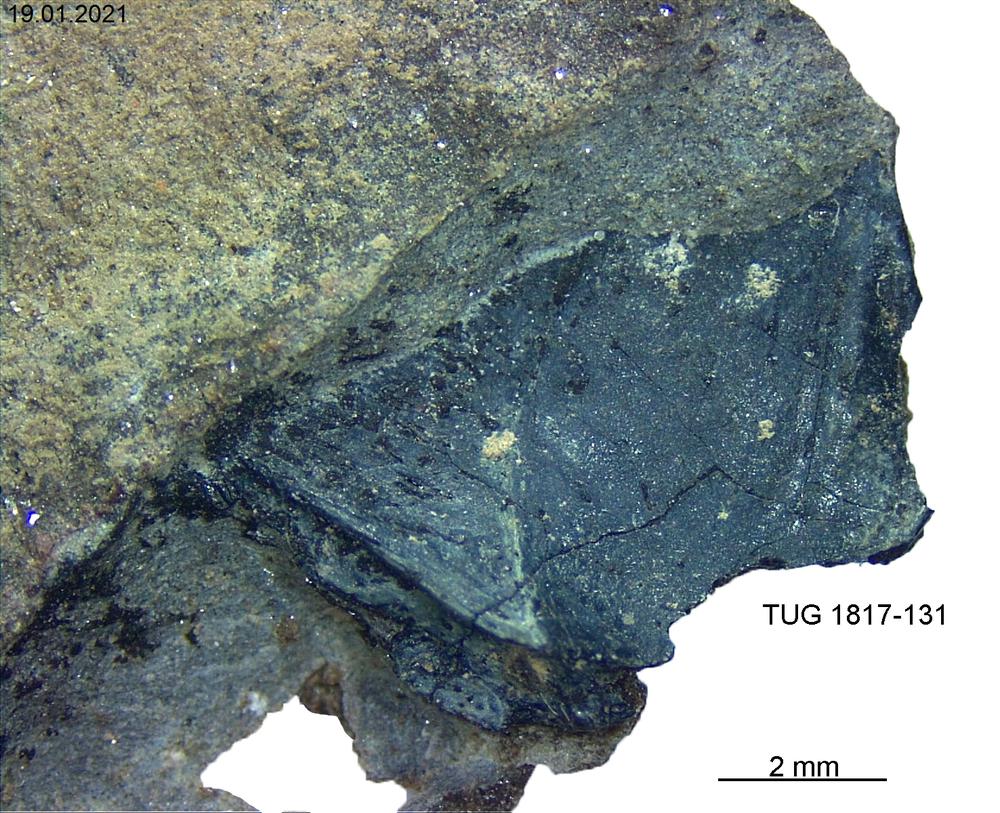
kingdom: Animalia
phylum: Chordata
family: Coccosteidae
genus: Millerosteus
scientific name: Millerosteus minor
